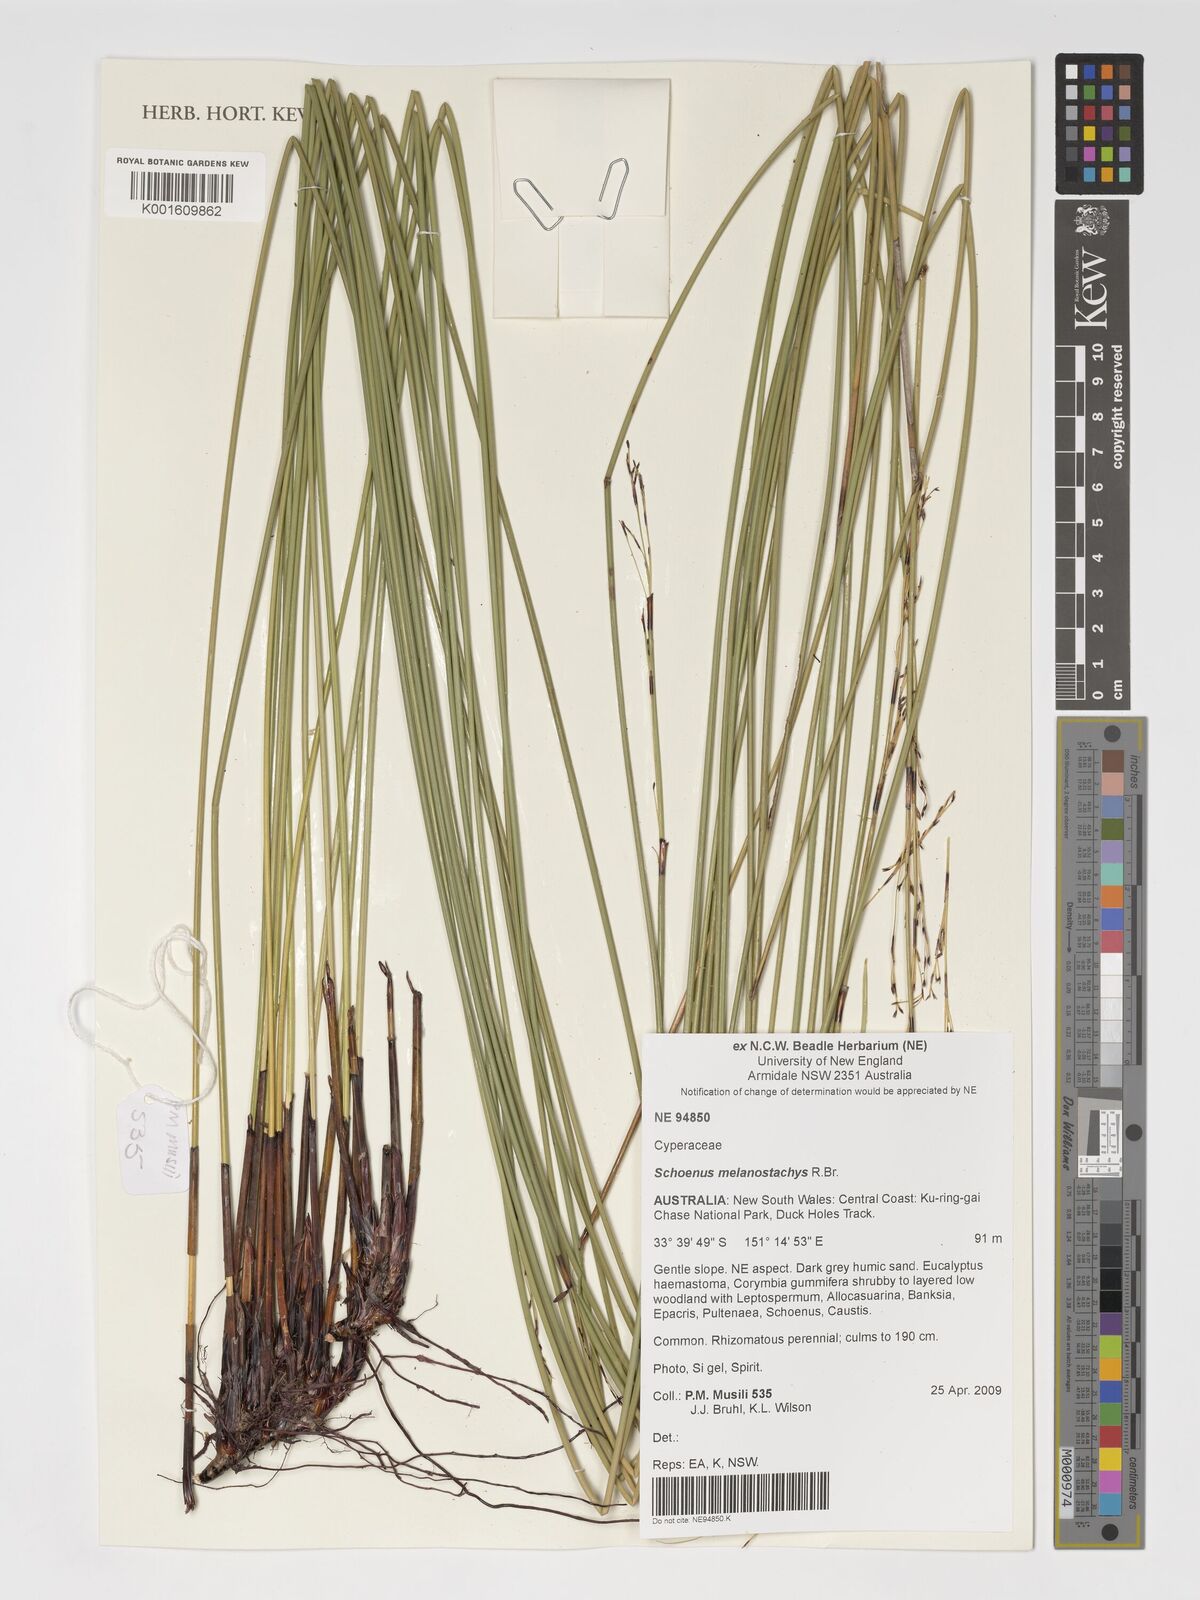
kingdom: Plantae
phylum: Tracheophyta
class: Liliopsida
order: Poales
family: Cyperaceae
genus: Schoenus
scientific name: Schoenus melanostachys
